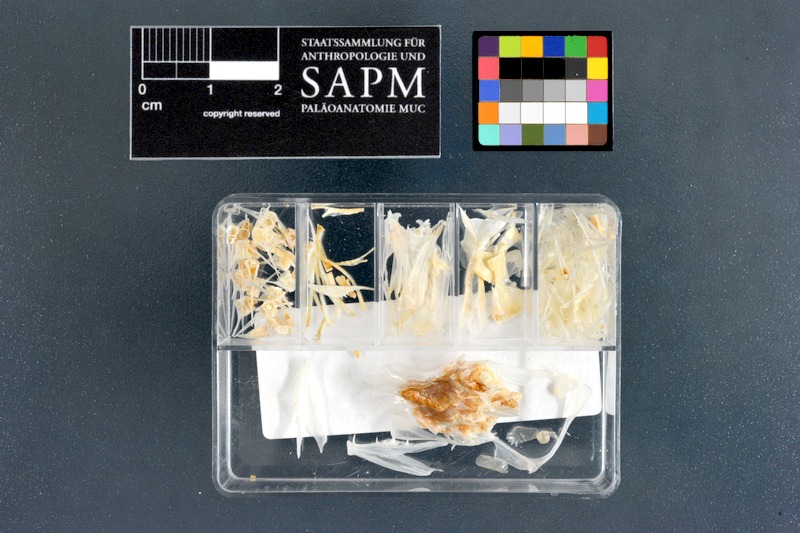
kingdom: Animalia
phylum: Chordata
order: Perciformes
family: Apogonidae
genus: Cheilodipterus
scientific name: Cheilodipterus arabicus
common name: Tiger cardinal
